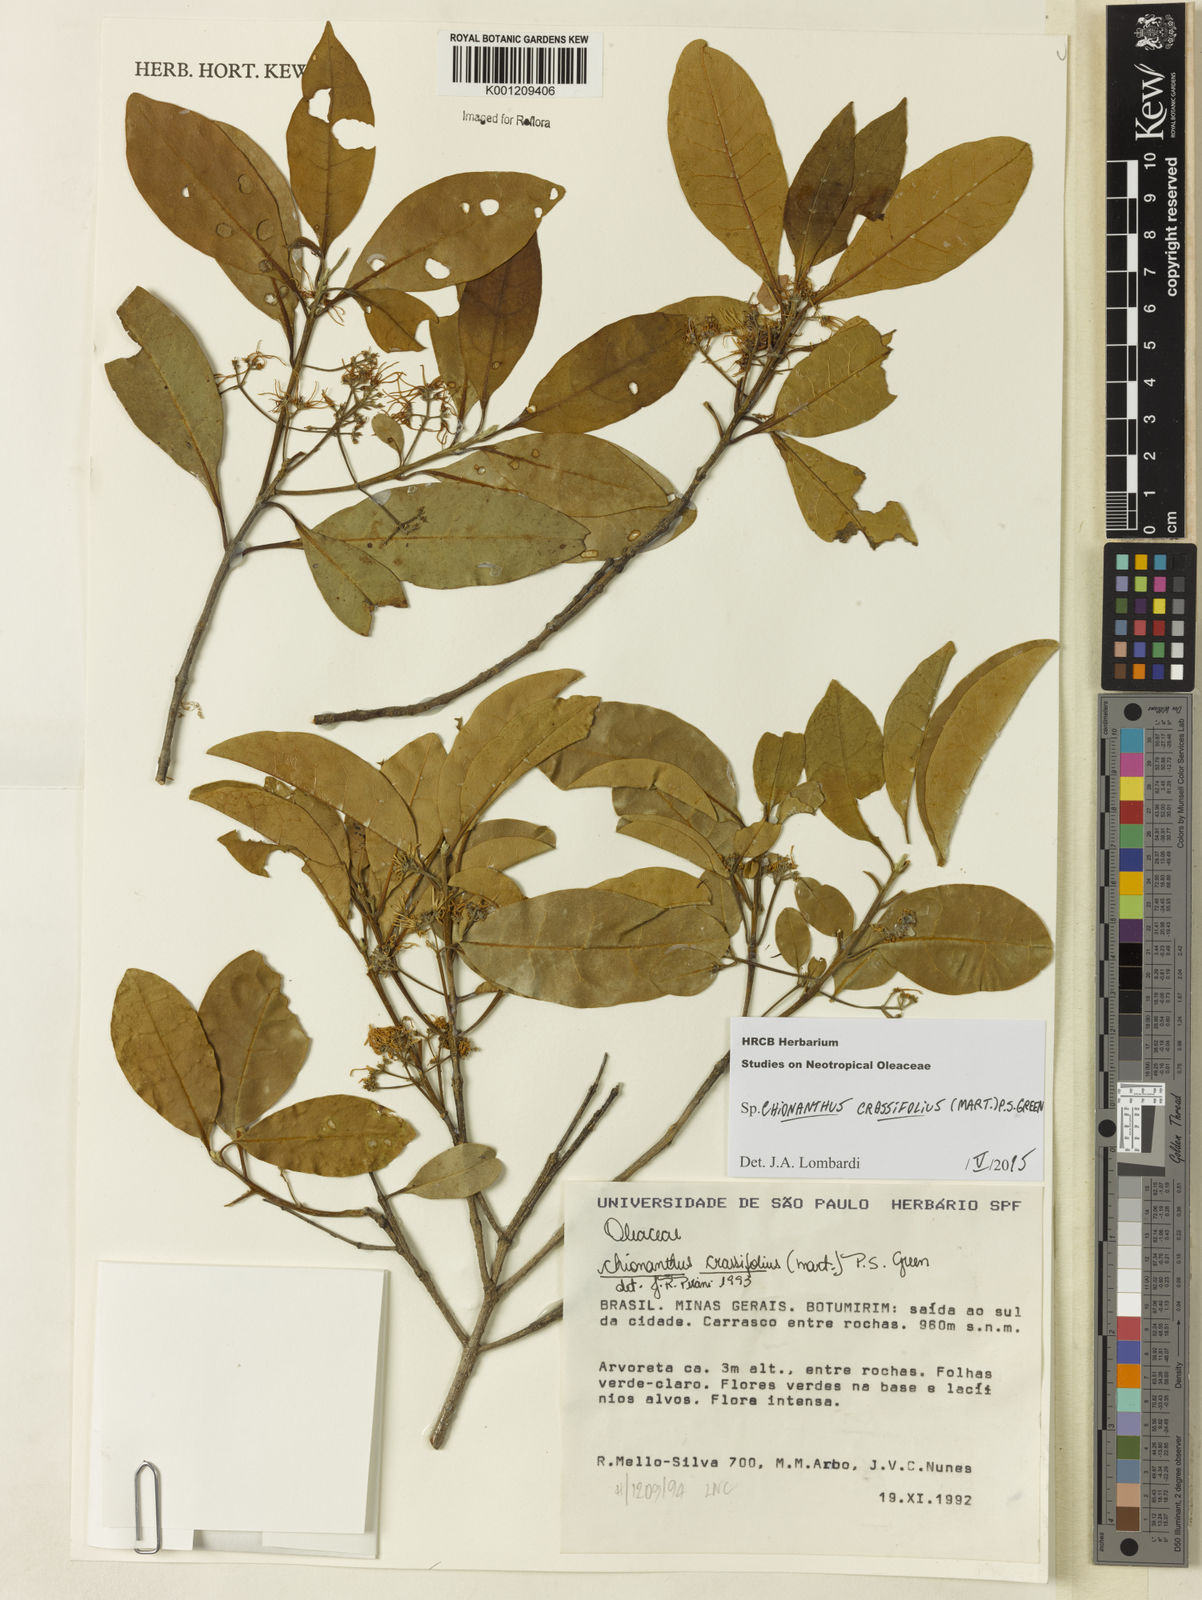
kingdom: Plantae
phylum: Tracheophyta
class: Magnoliopsida
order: Lamiales
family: Oleaceae
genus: Chionanthus
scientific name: Chionanthus crassifolius
